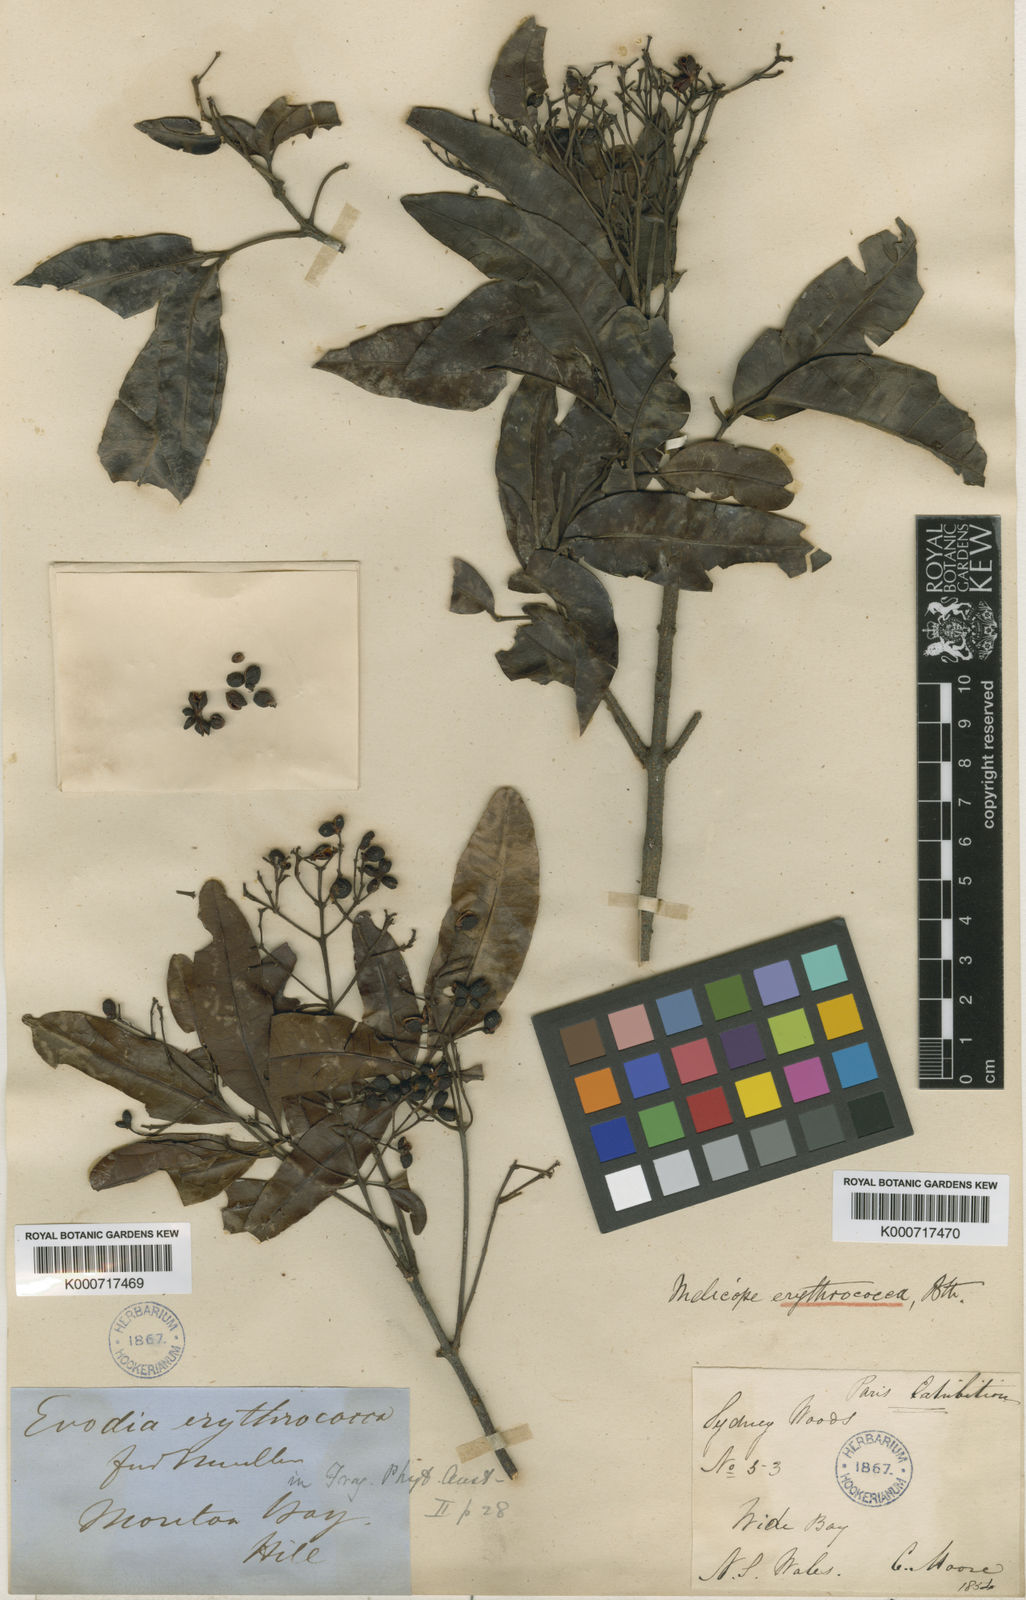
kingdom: Plantae
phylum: Tracheophyta
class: Magnoliopsida
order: Sapindales
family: Rutaceae
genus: Dinosperma
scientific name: Dinosperma erythrococca
